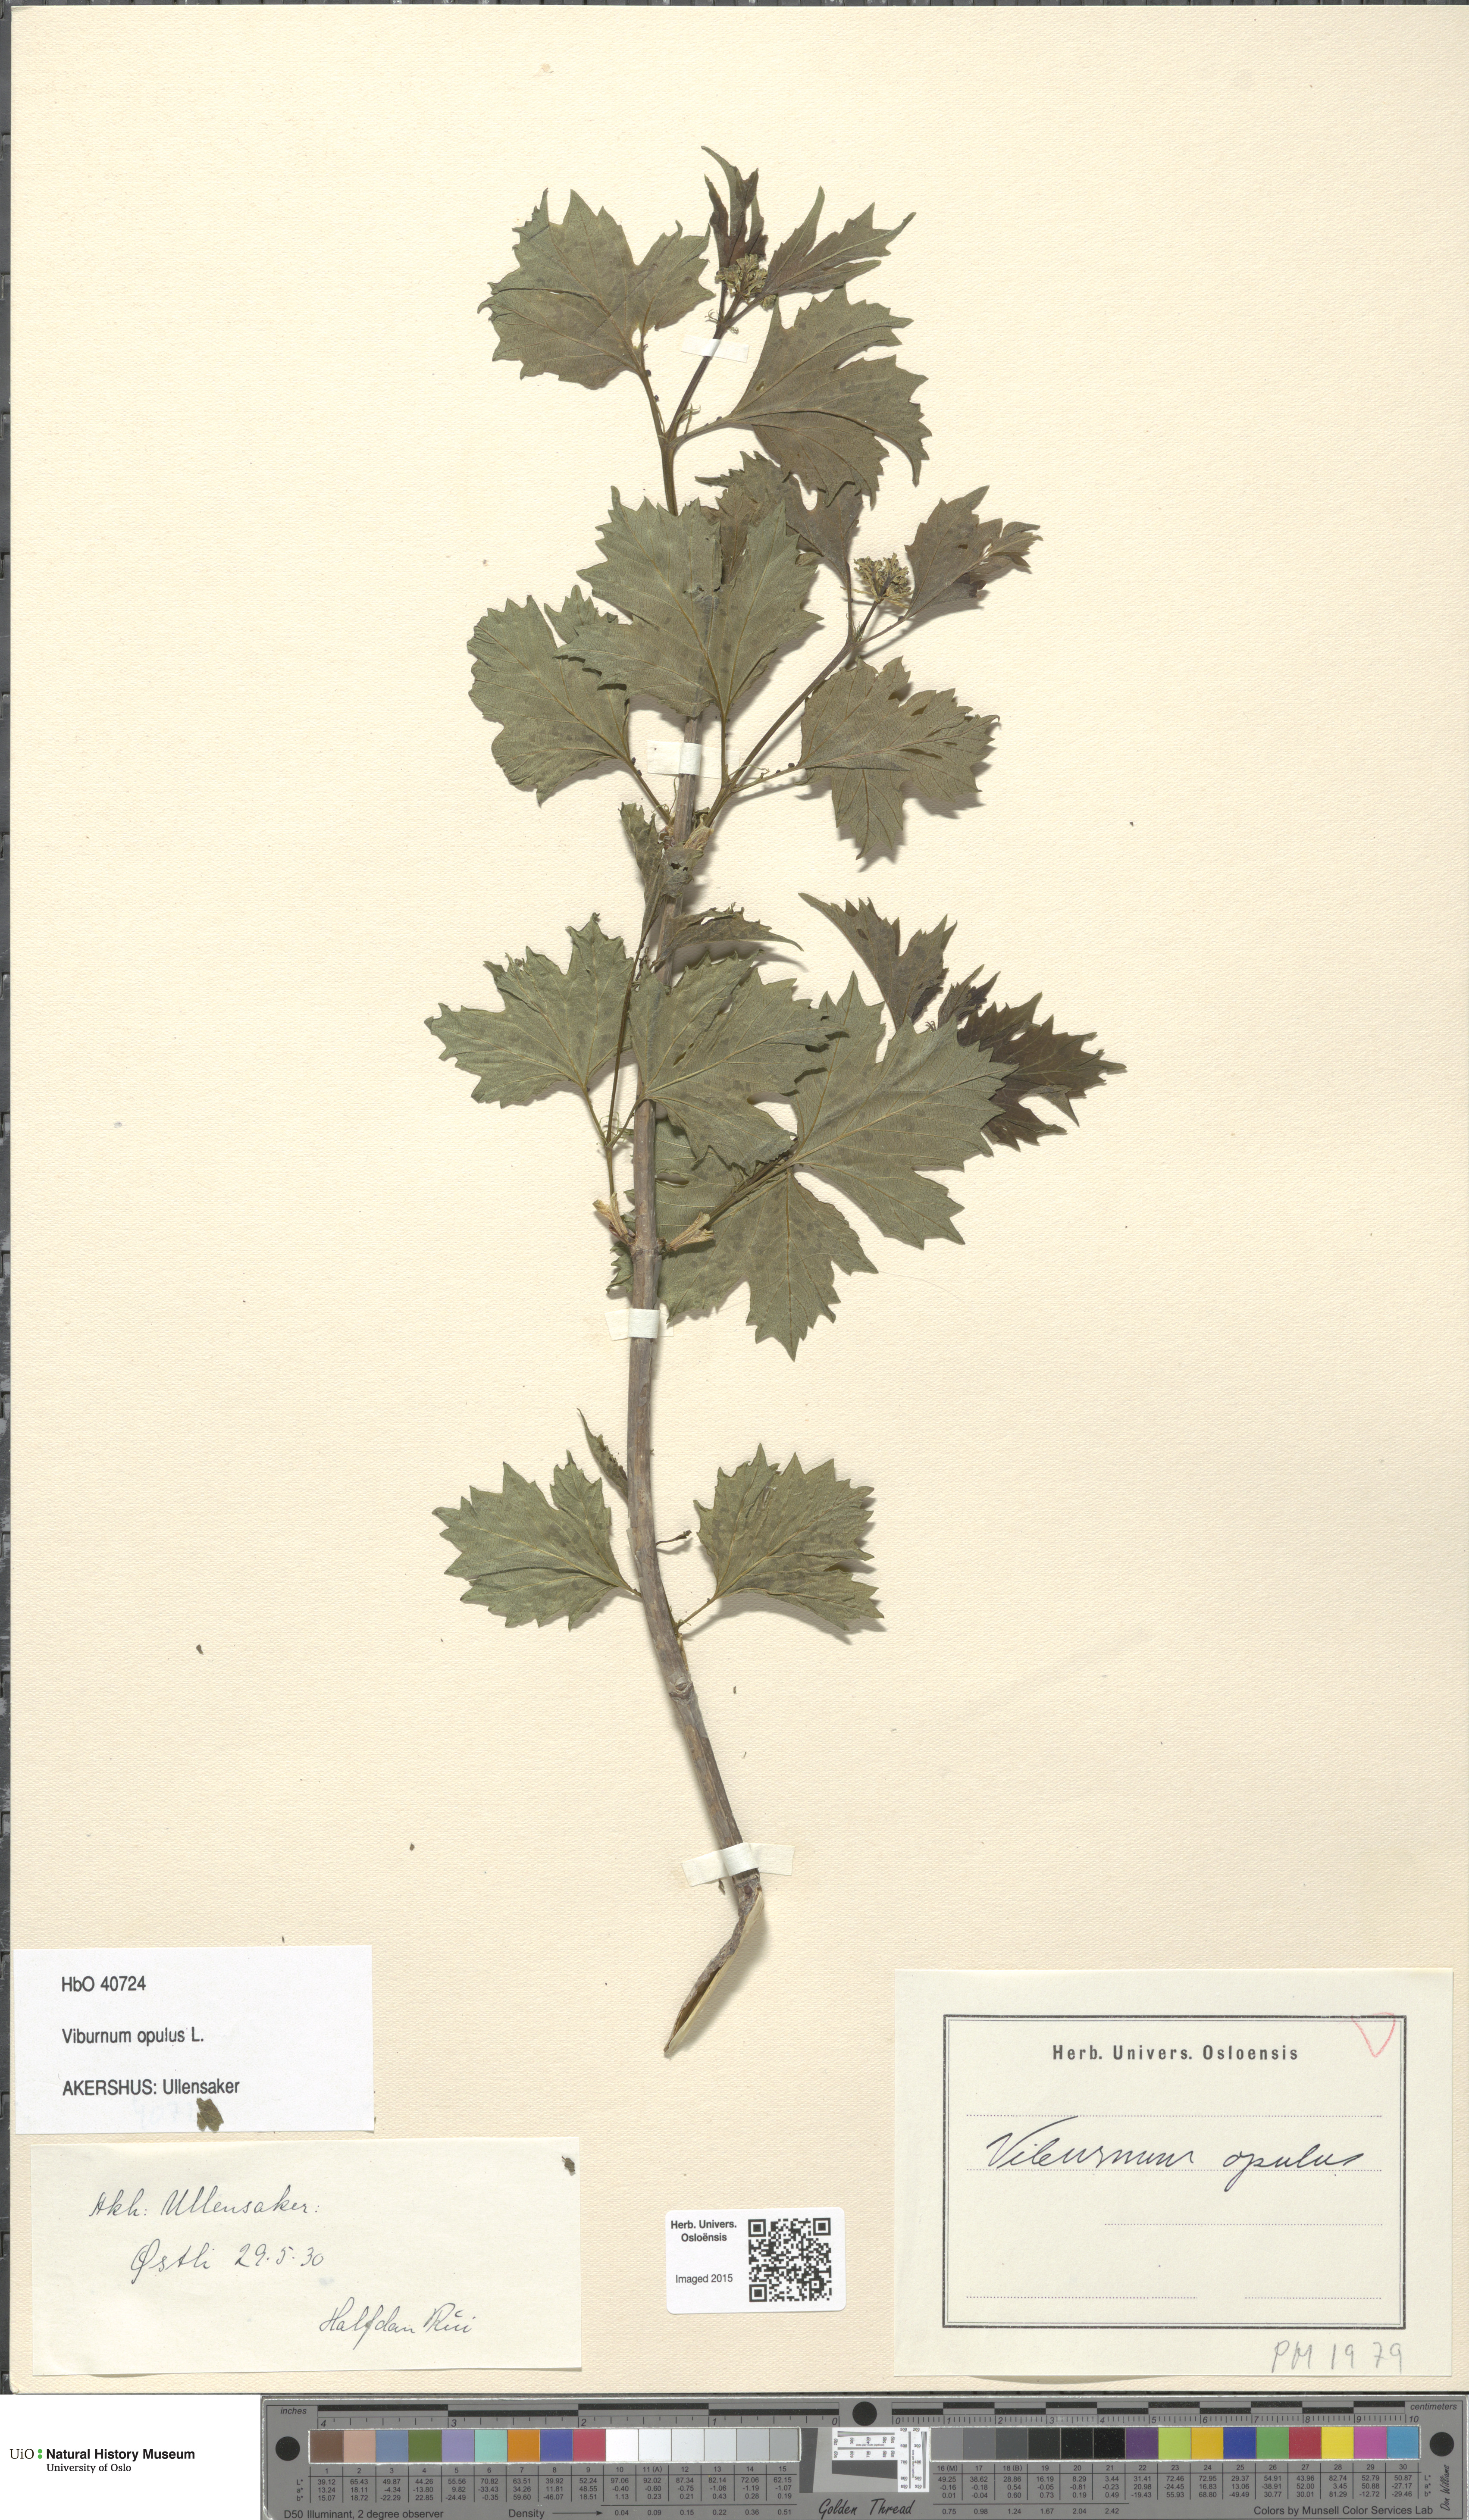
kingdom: Plantae
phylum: Tracheophyta
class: Magnoliopsida
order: Dipsacales
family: Viburnaceae
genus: Viburnum
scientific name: Viburnum opulus
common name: Guelder-rose
